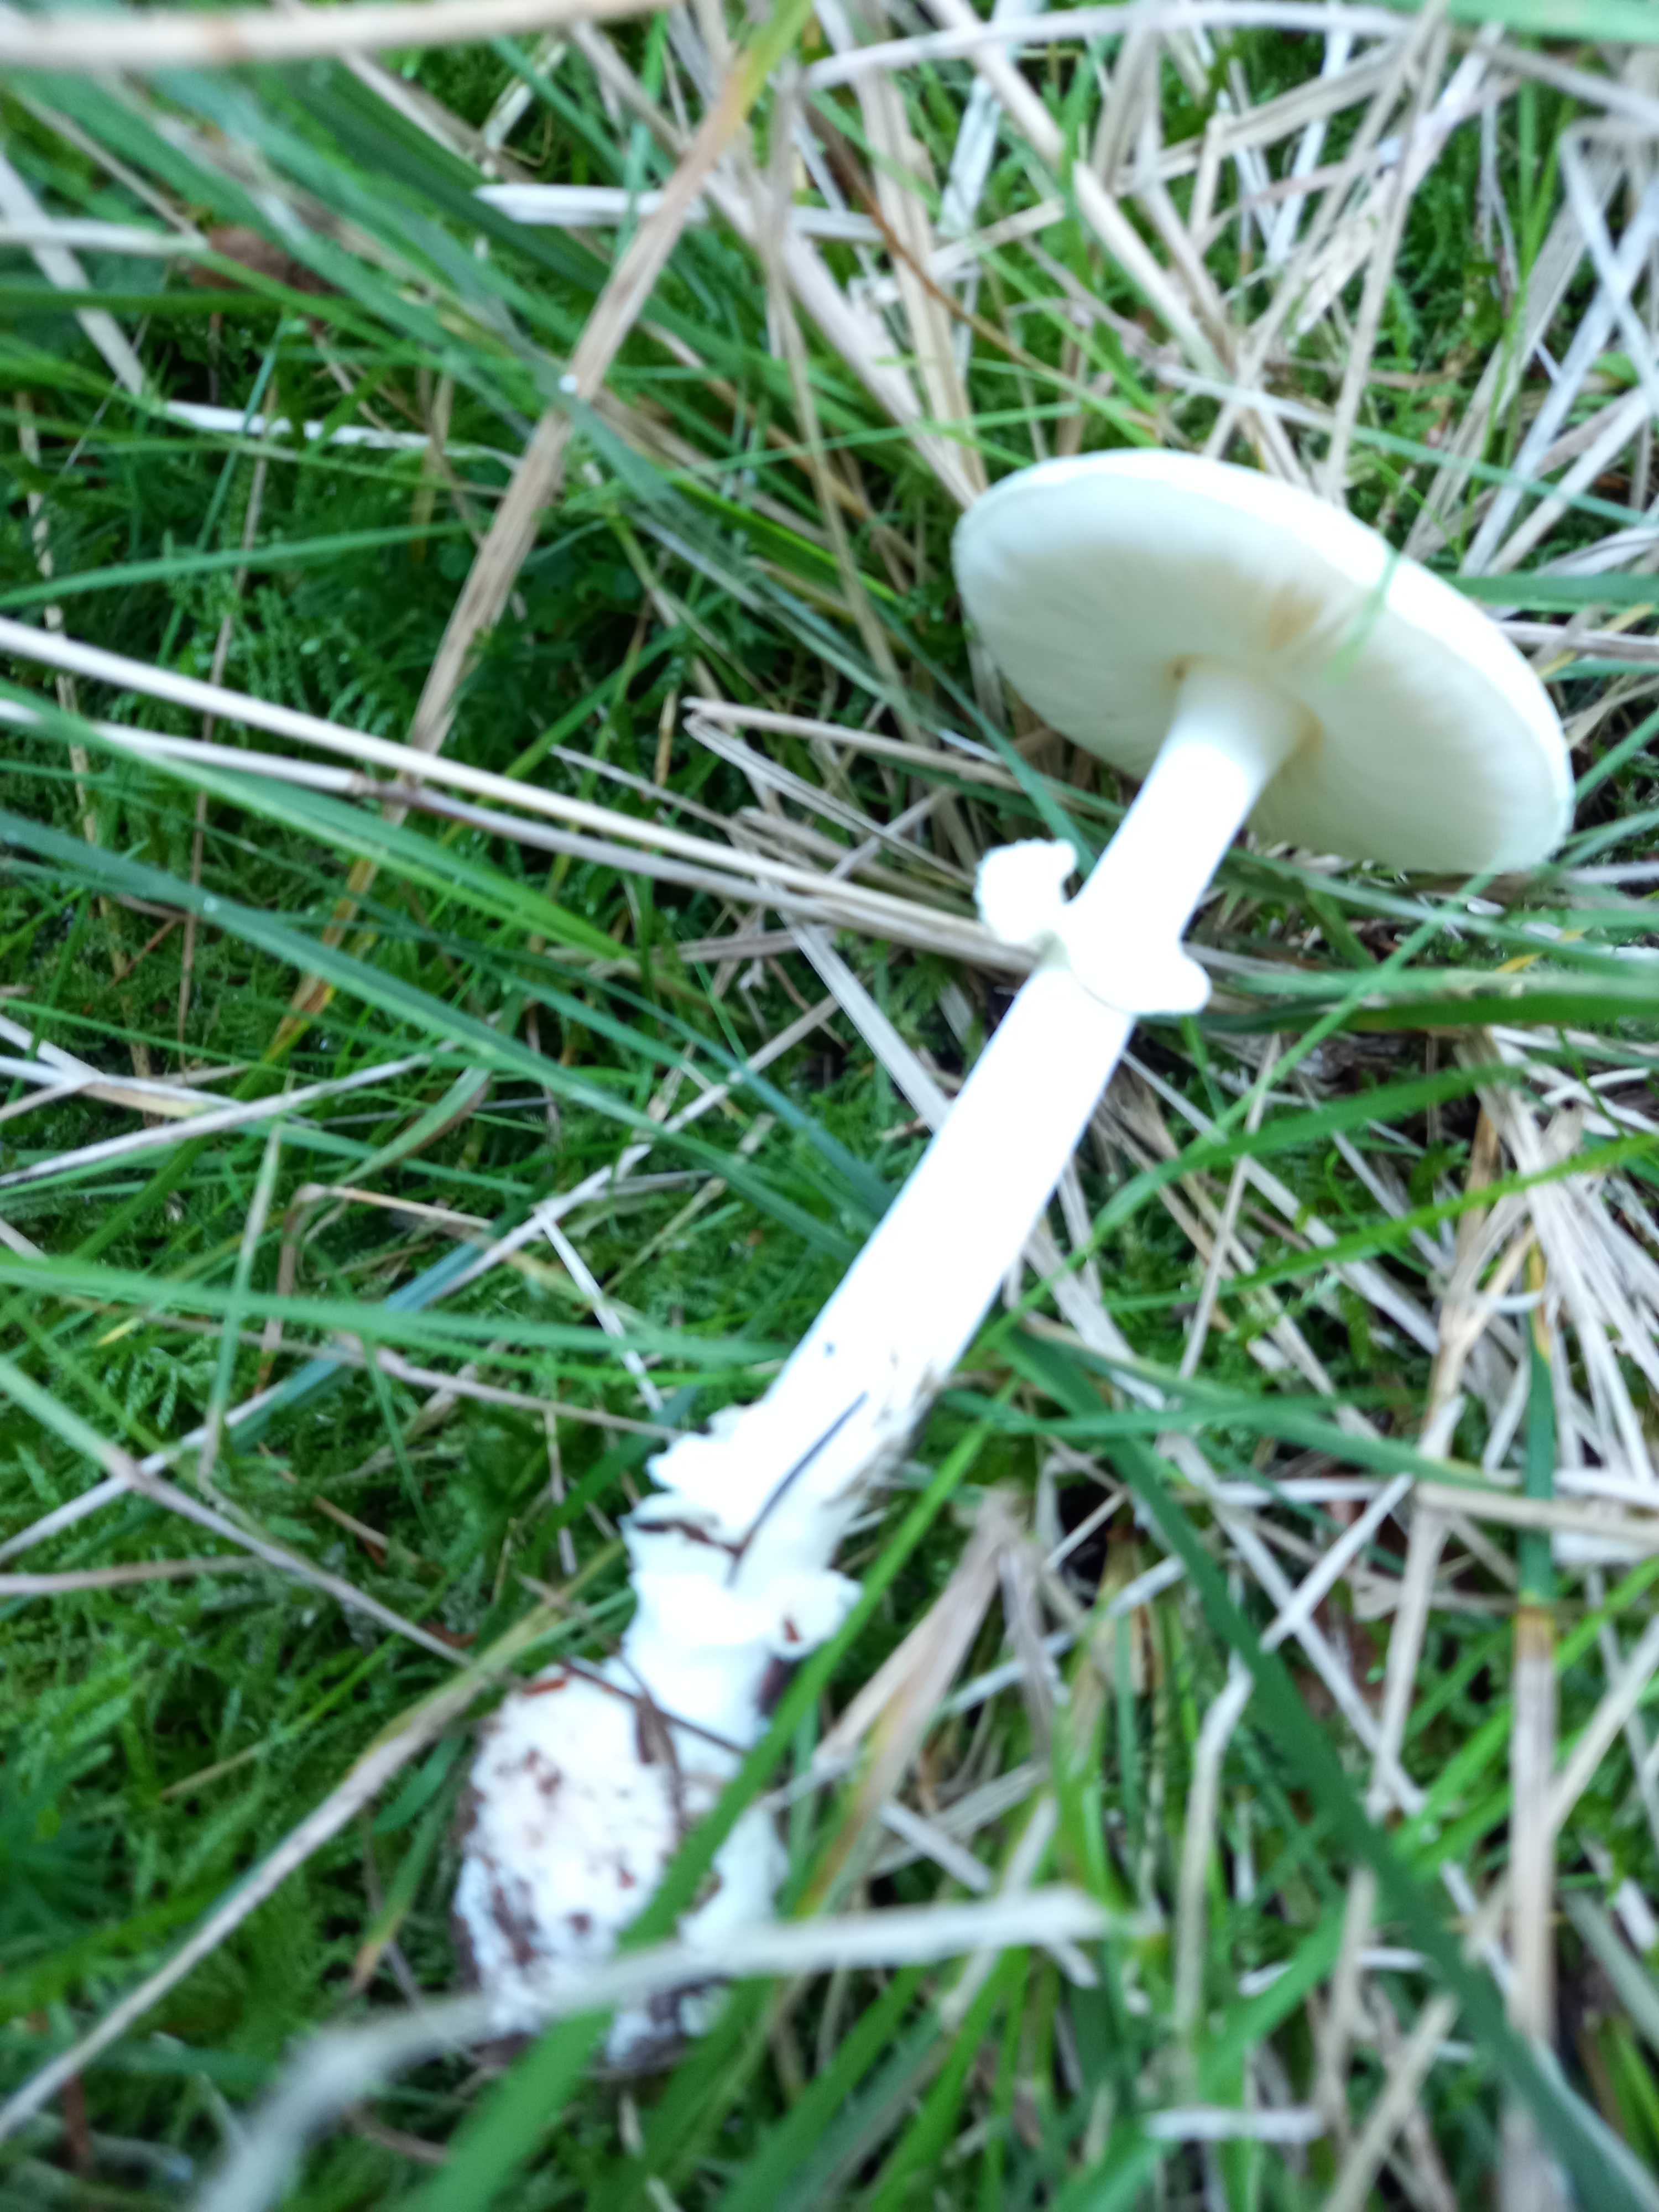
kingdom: Fungi
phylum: Basidiomycota
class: Agaricomycetes
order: Agaricales
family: Amanitaceae
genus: Amanita
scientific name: Amanita citrina
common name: kugleknoldet fluesvamp
